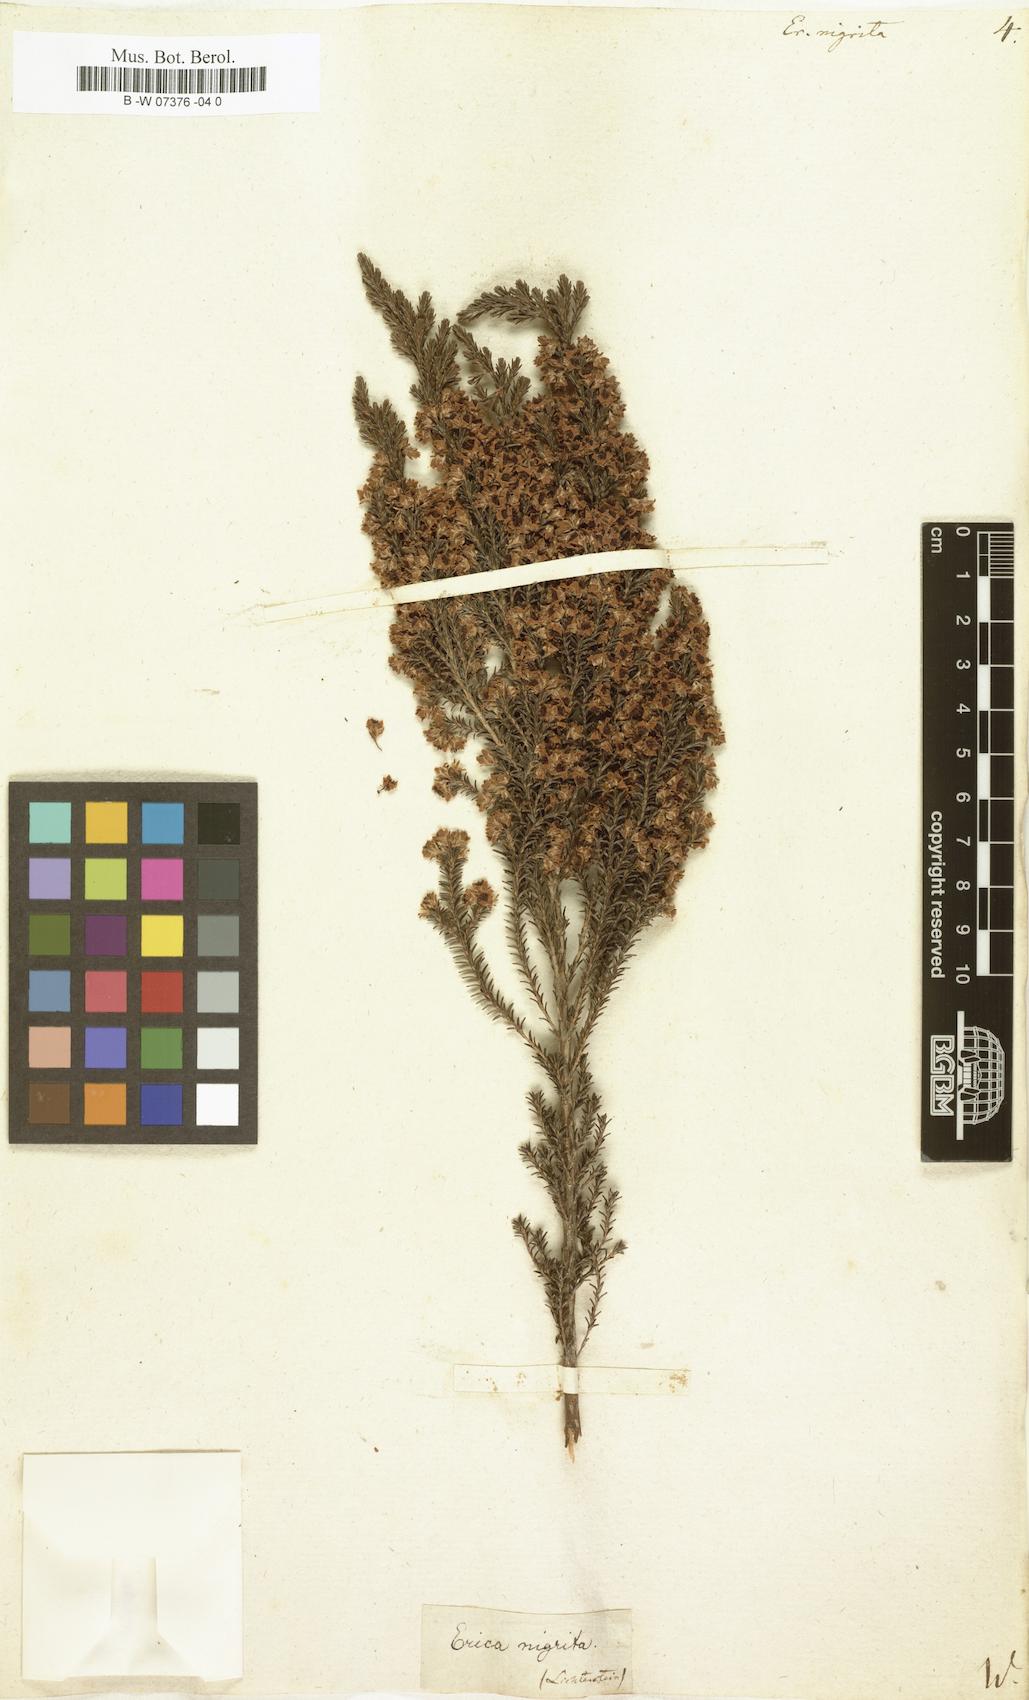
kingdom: Plantae
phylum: Tracheophyta
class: Magnoliopsida
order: Ericales
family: Ericaceae
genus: Erica
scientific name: Erica calycina
